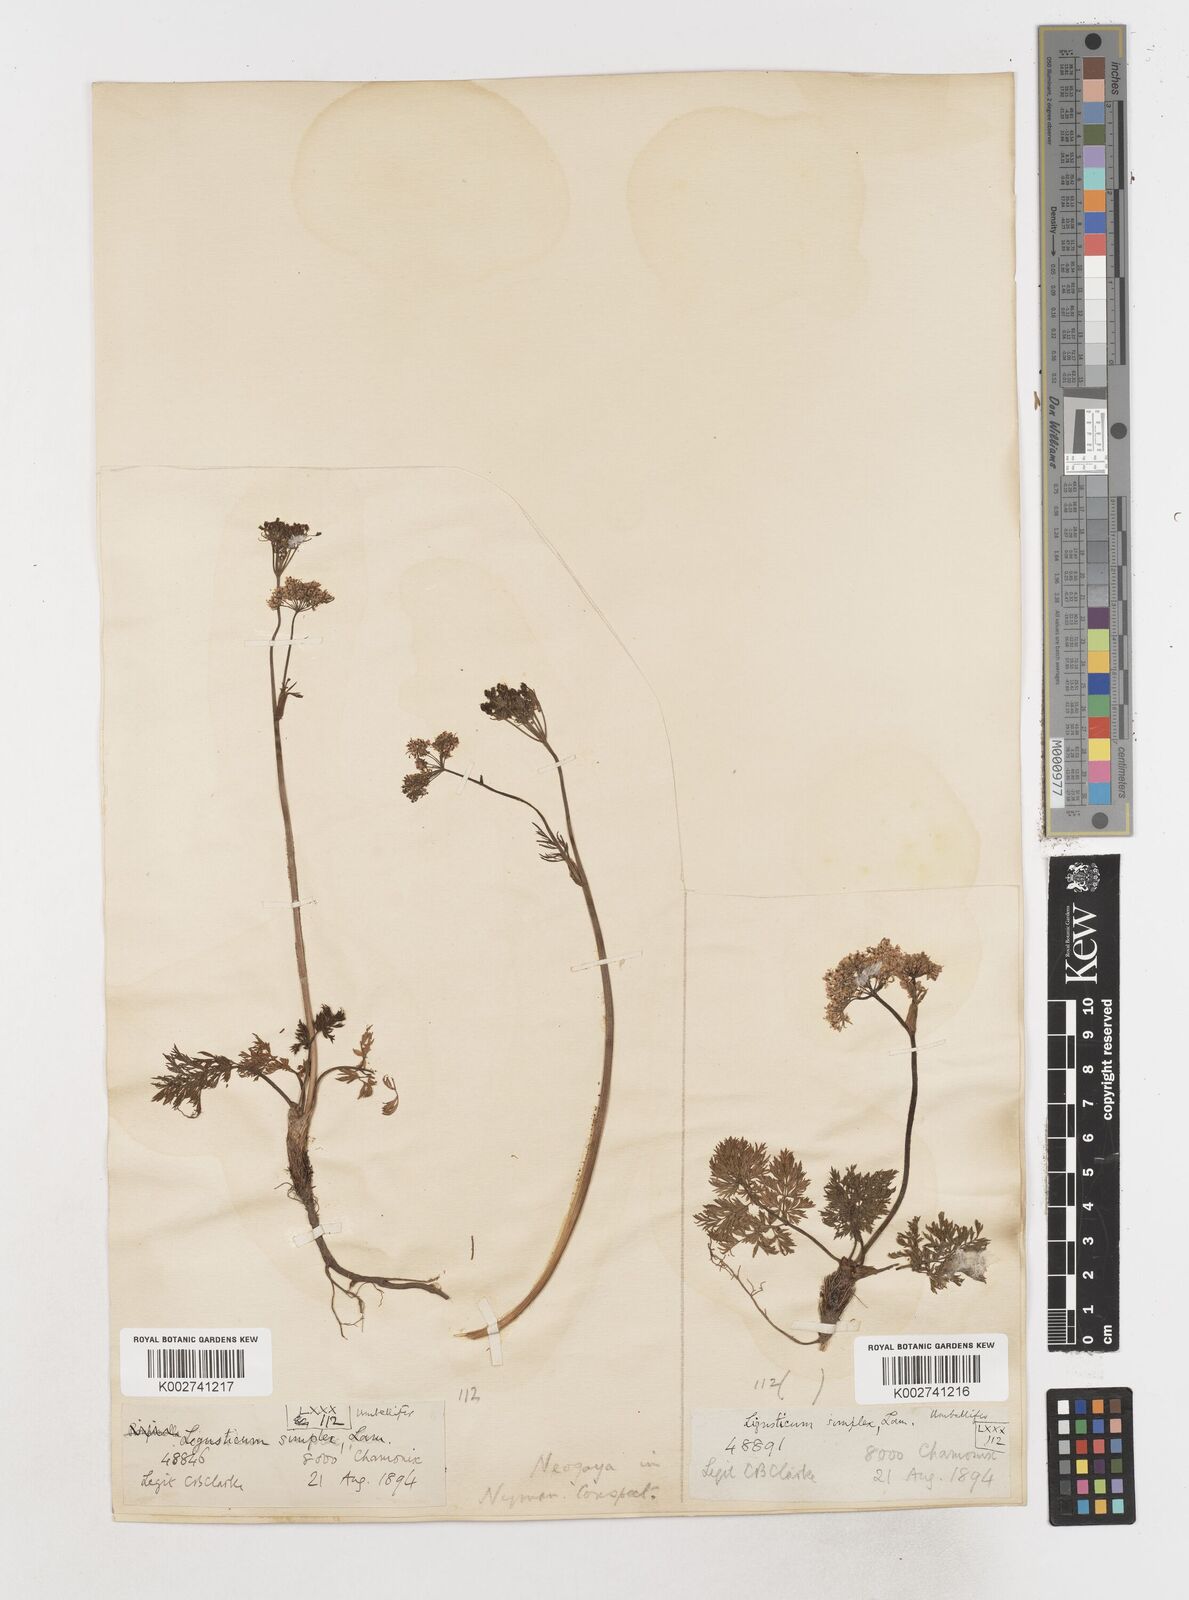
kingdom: Plantae
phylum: Tracheophyta
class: Magnoliopsida
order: Apiales
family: Apiaceae
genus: Pachypleurum
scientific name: Pachypleurum mutellinoides
